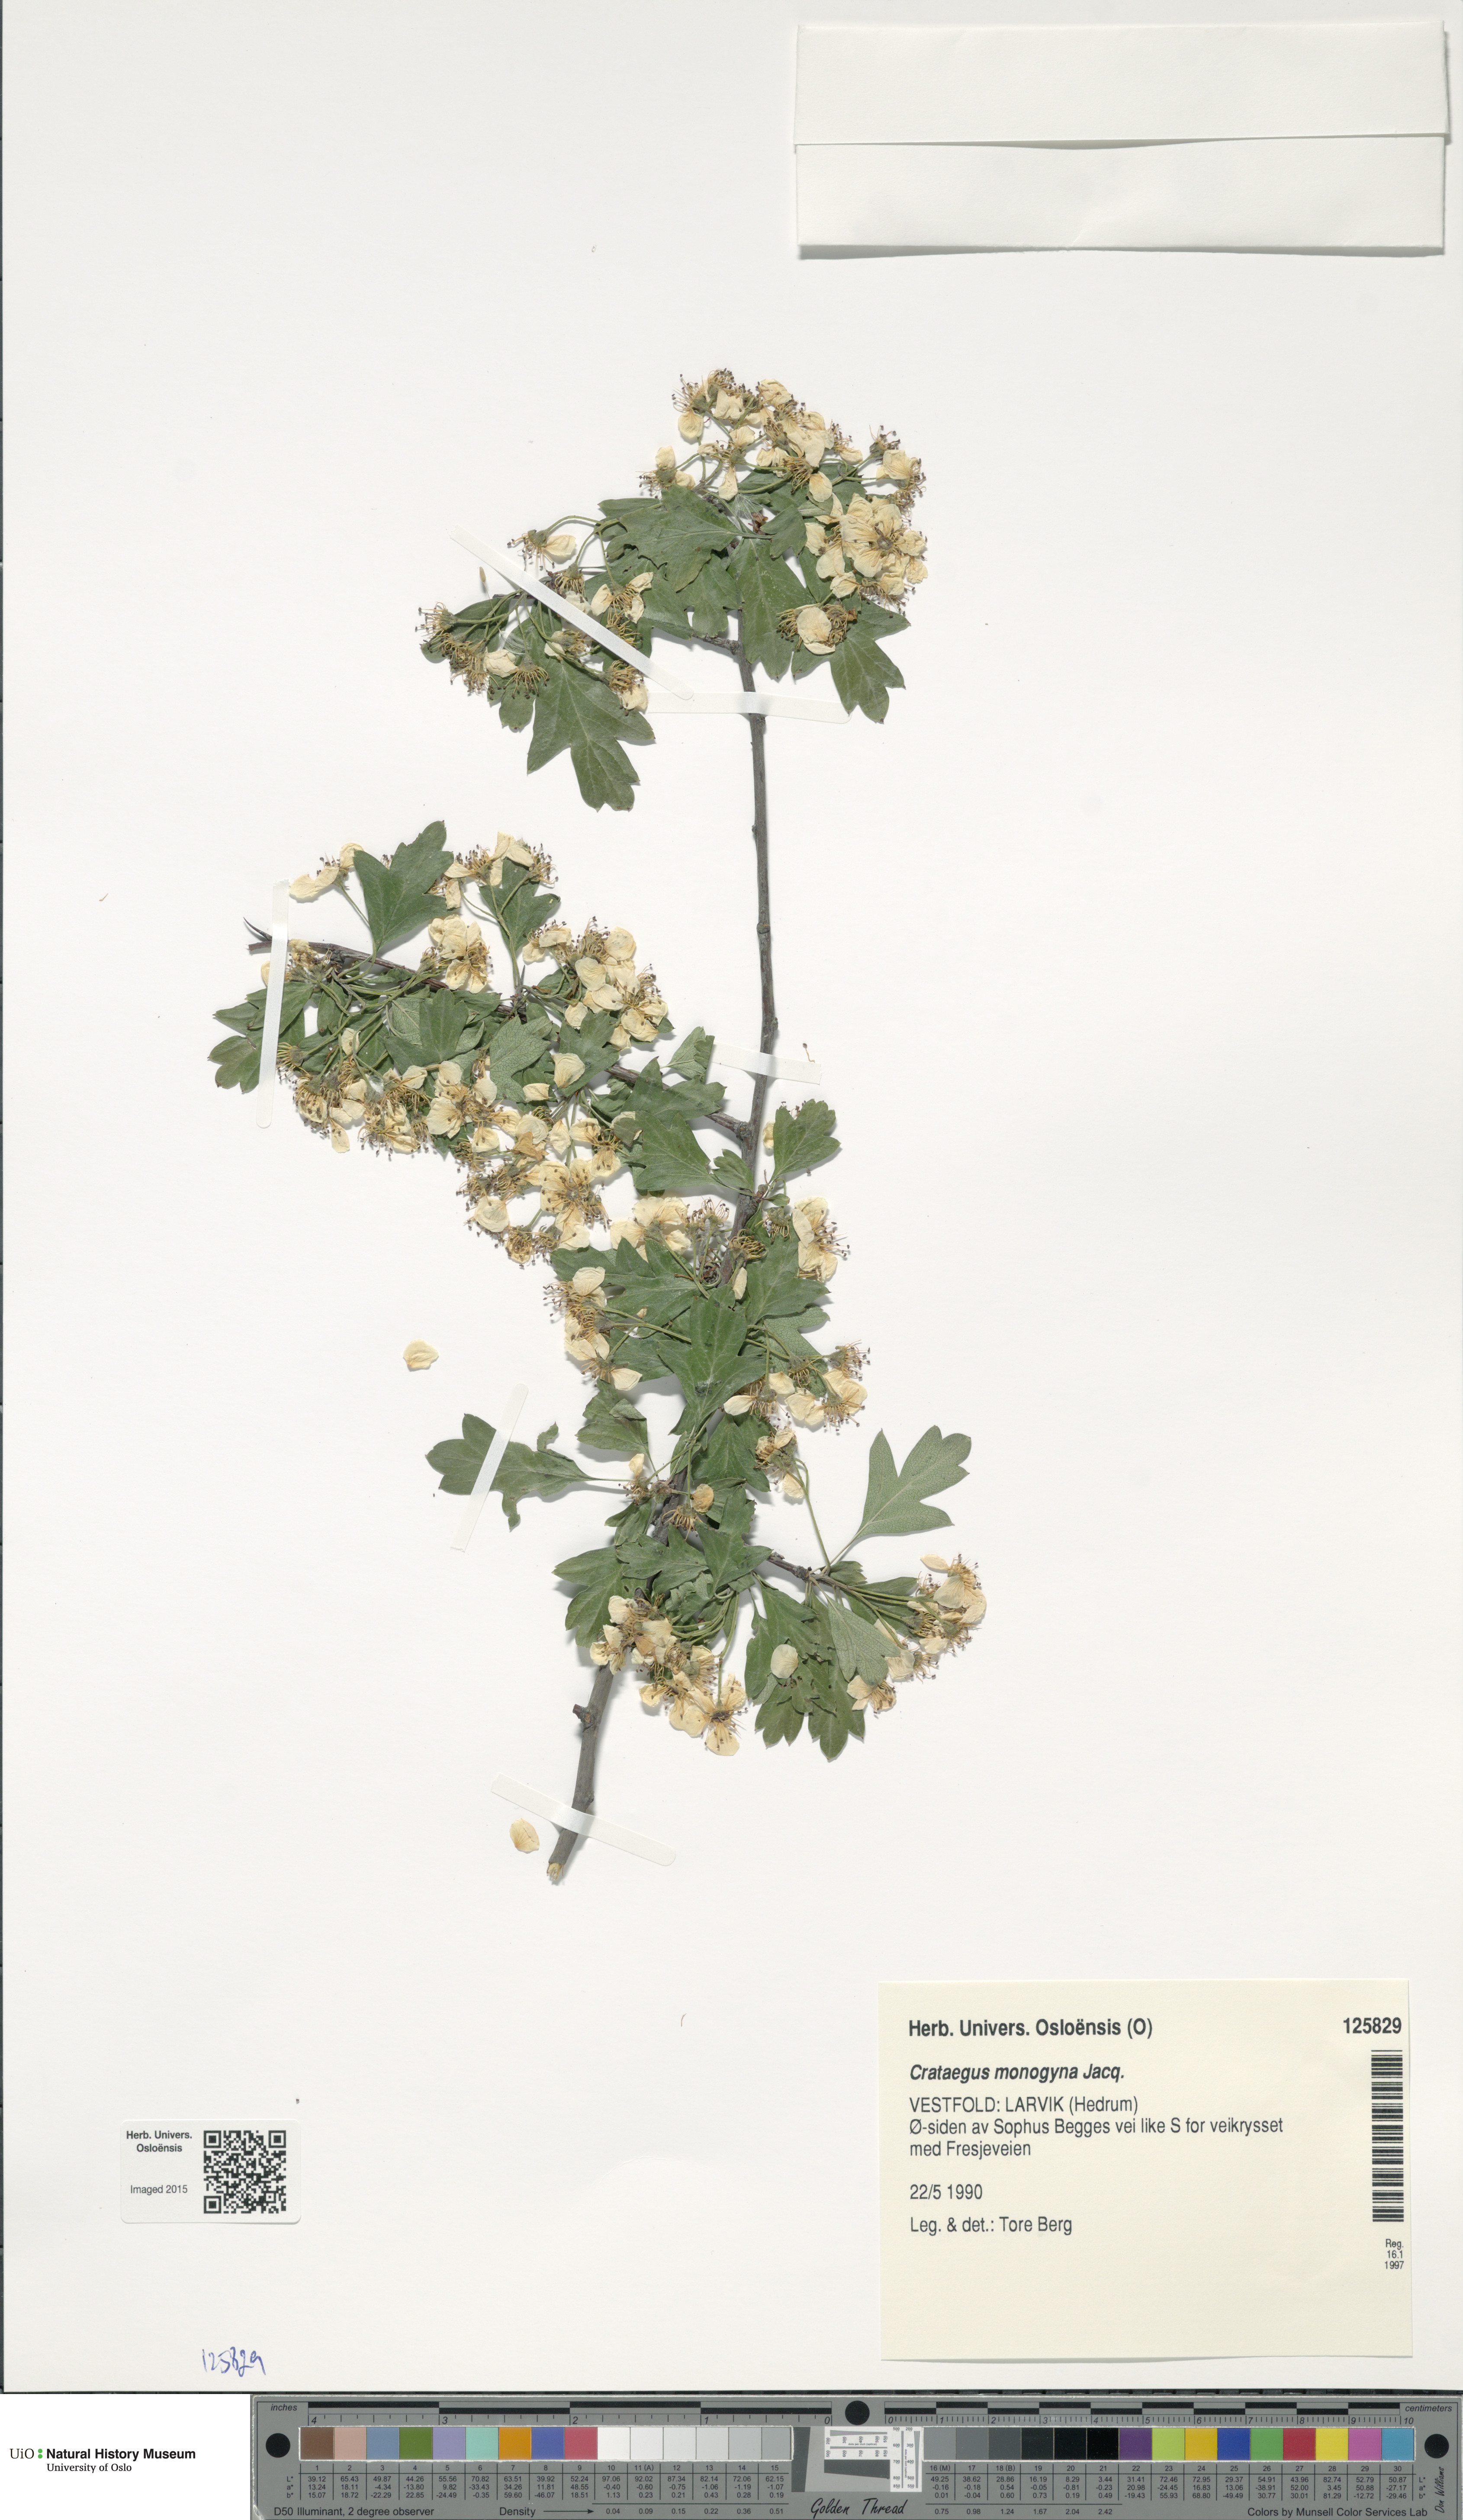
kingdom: Plantae
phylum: Tracheophyta
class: Magnoliopsida
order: Rosales
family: Rosaceae
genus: Crataegus
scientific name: Crataegus monogyna
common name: Hawthorn
